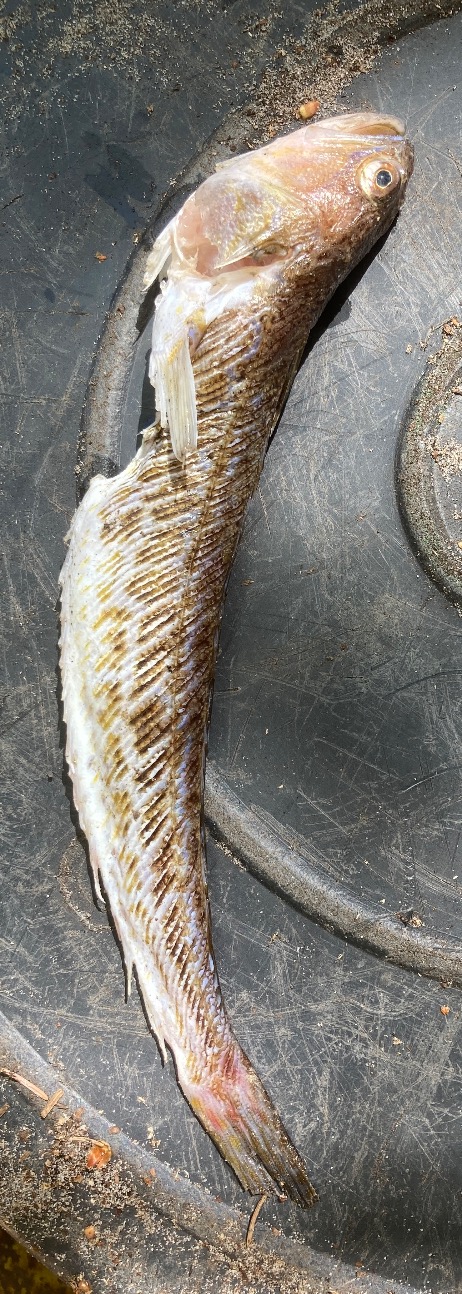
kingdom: Animalia
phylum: Chordata
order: Perciformes
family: Trachinidae
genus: Trachinus
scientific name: Trachinus draco
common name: Almindelig fjæsing
